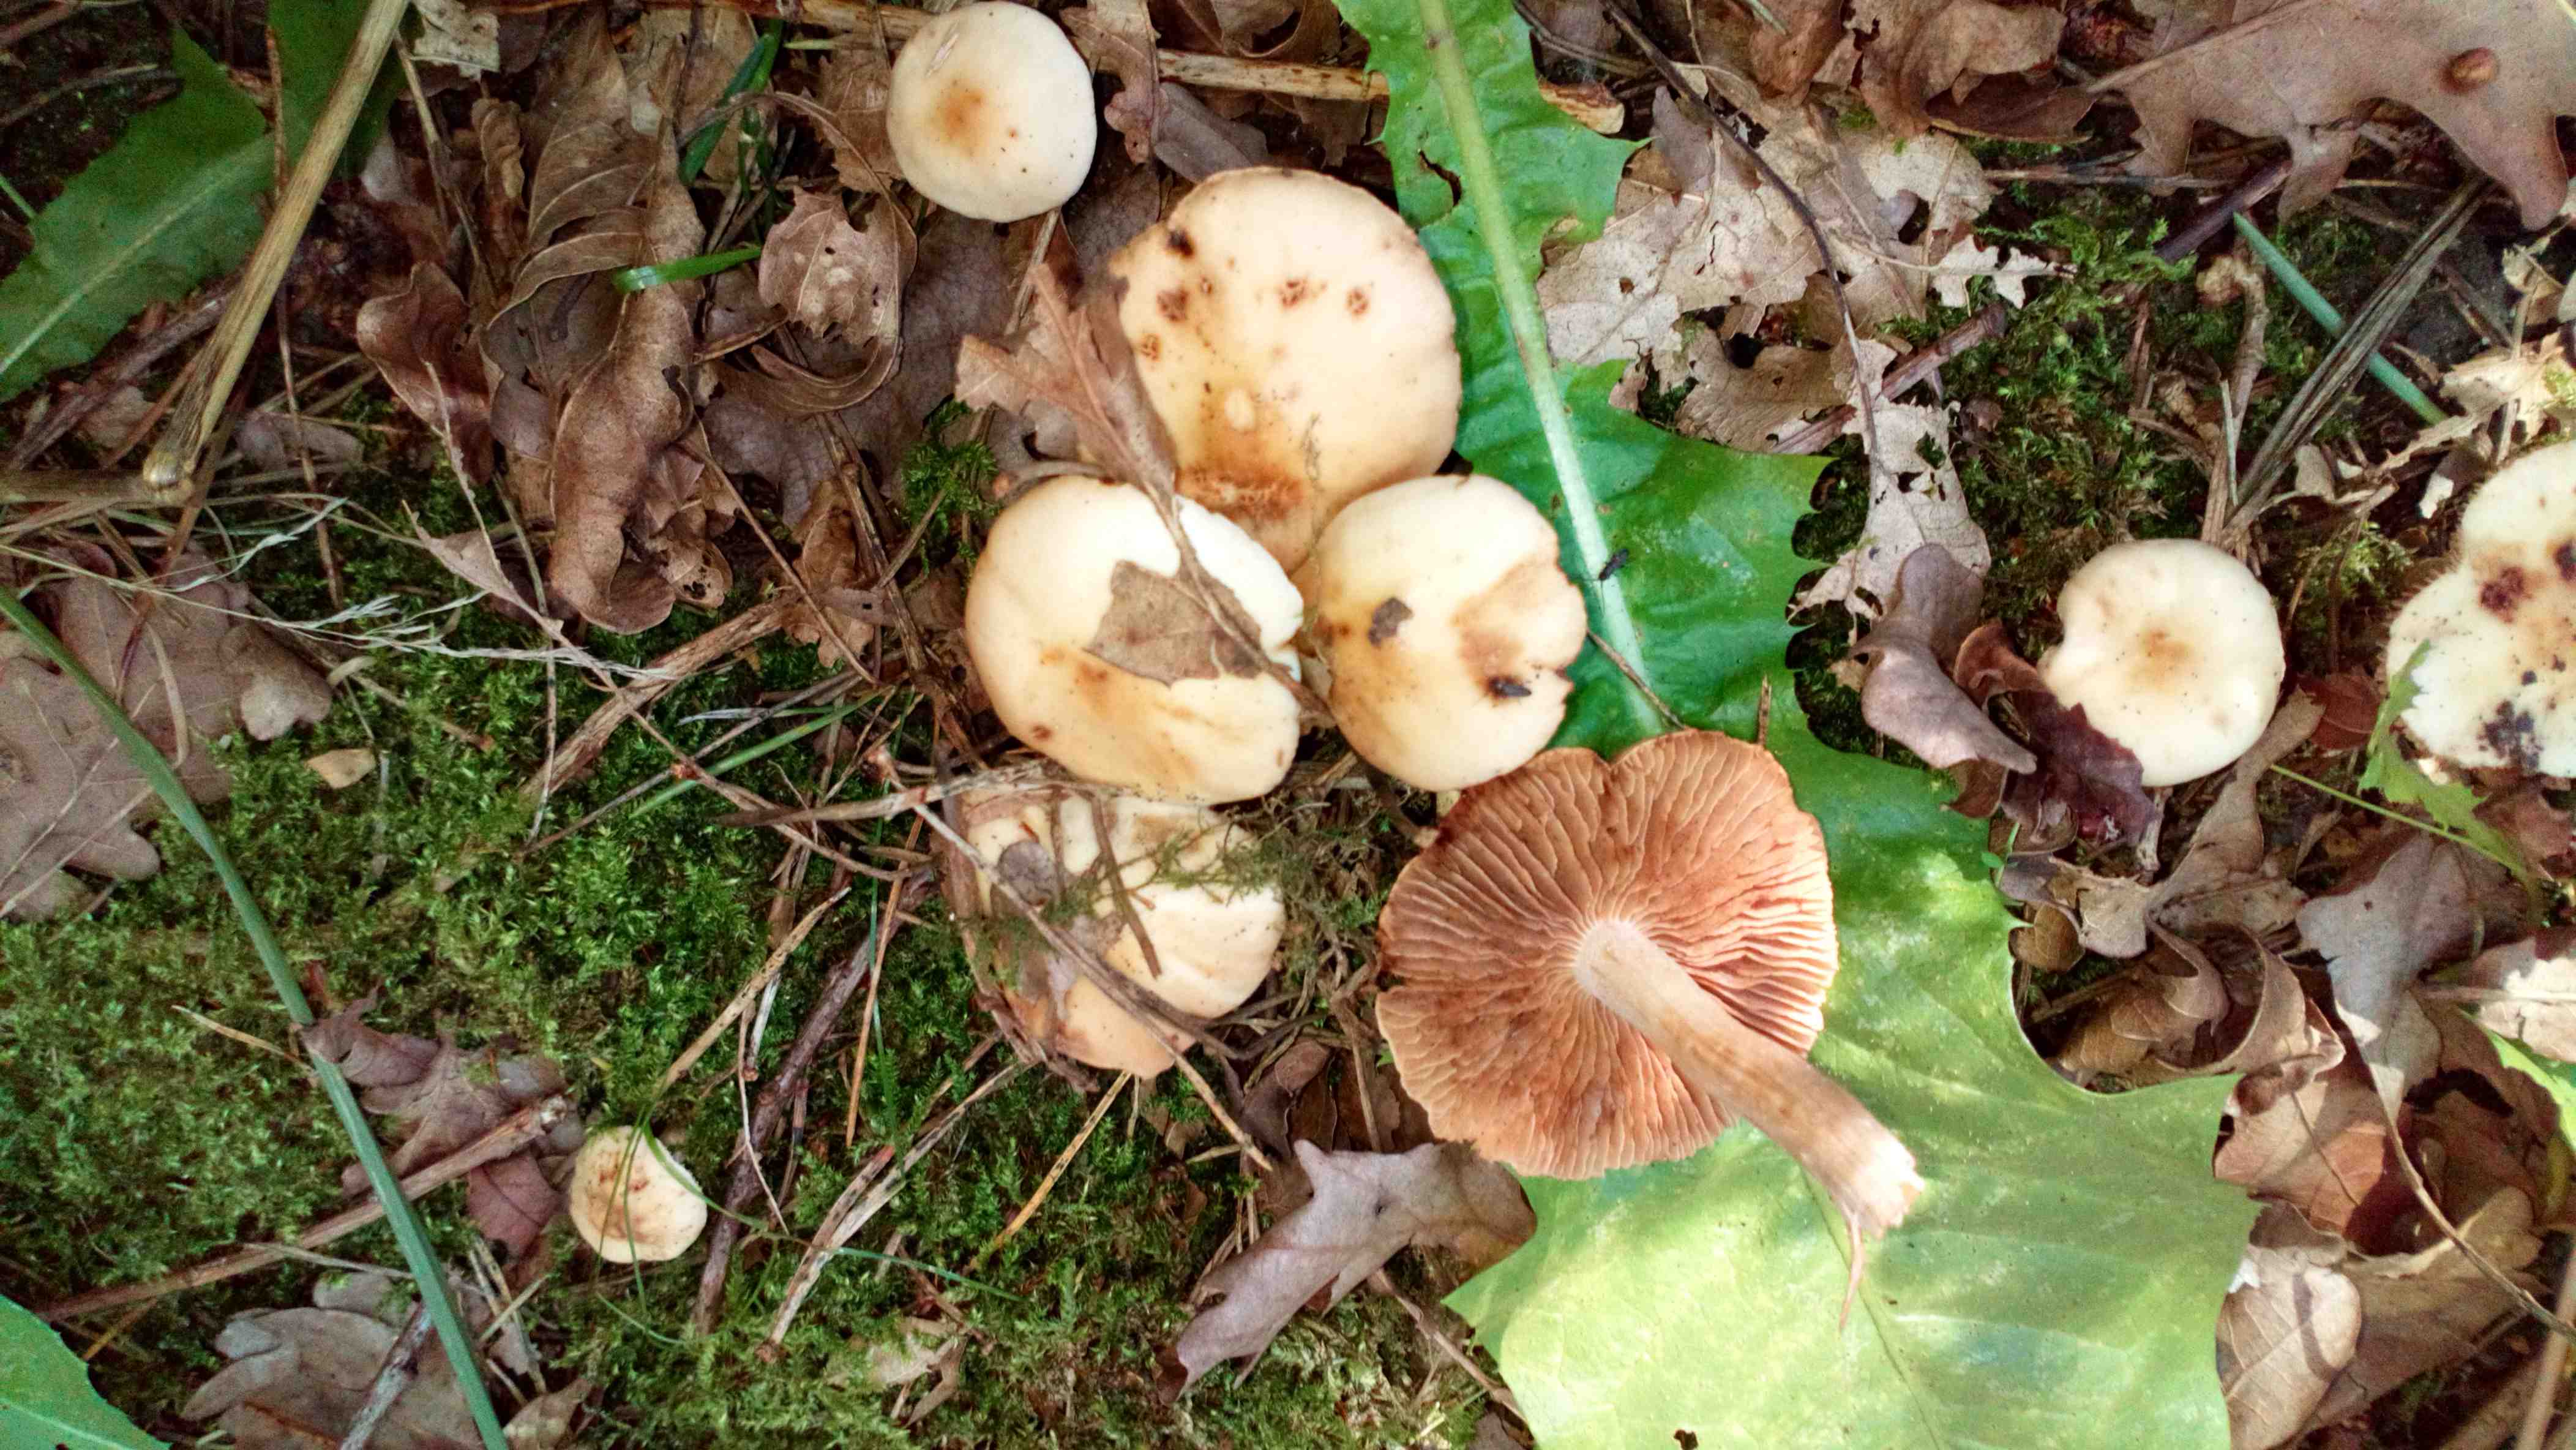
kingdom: Fungi
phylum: Basidiomycota
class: Agaricomycetes
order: Agaricales
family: Hymenogastraceae
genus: Hebeloma
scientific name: Hebeloma
